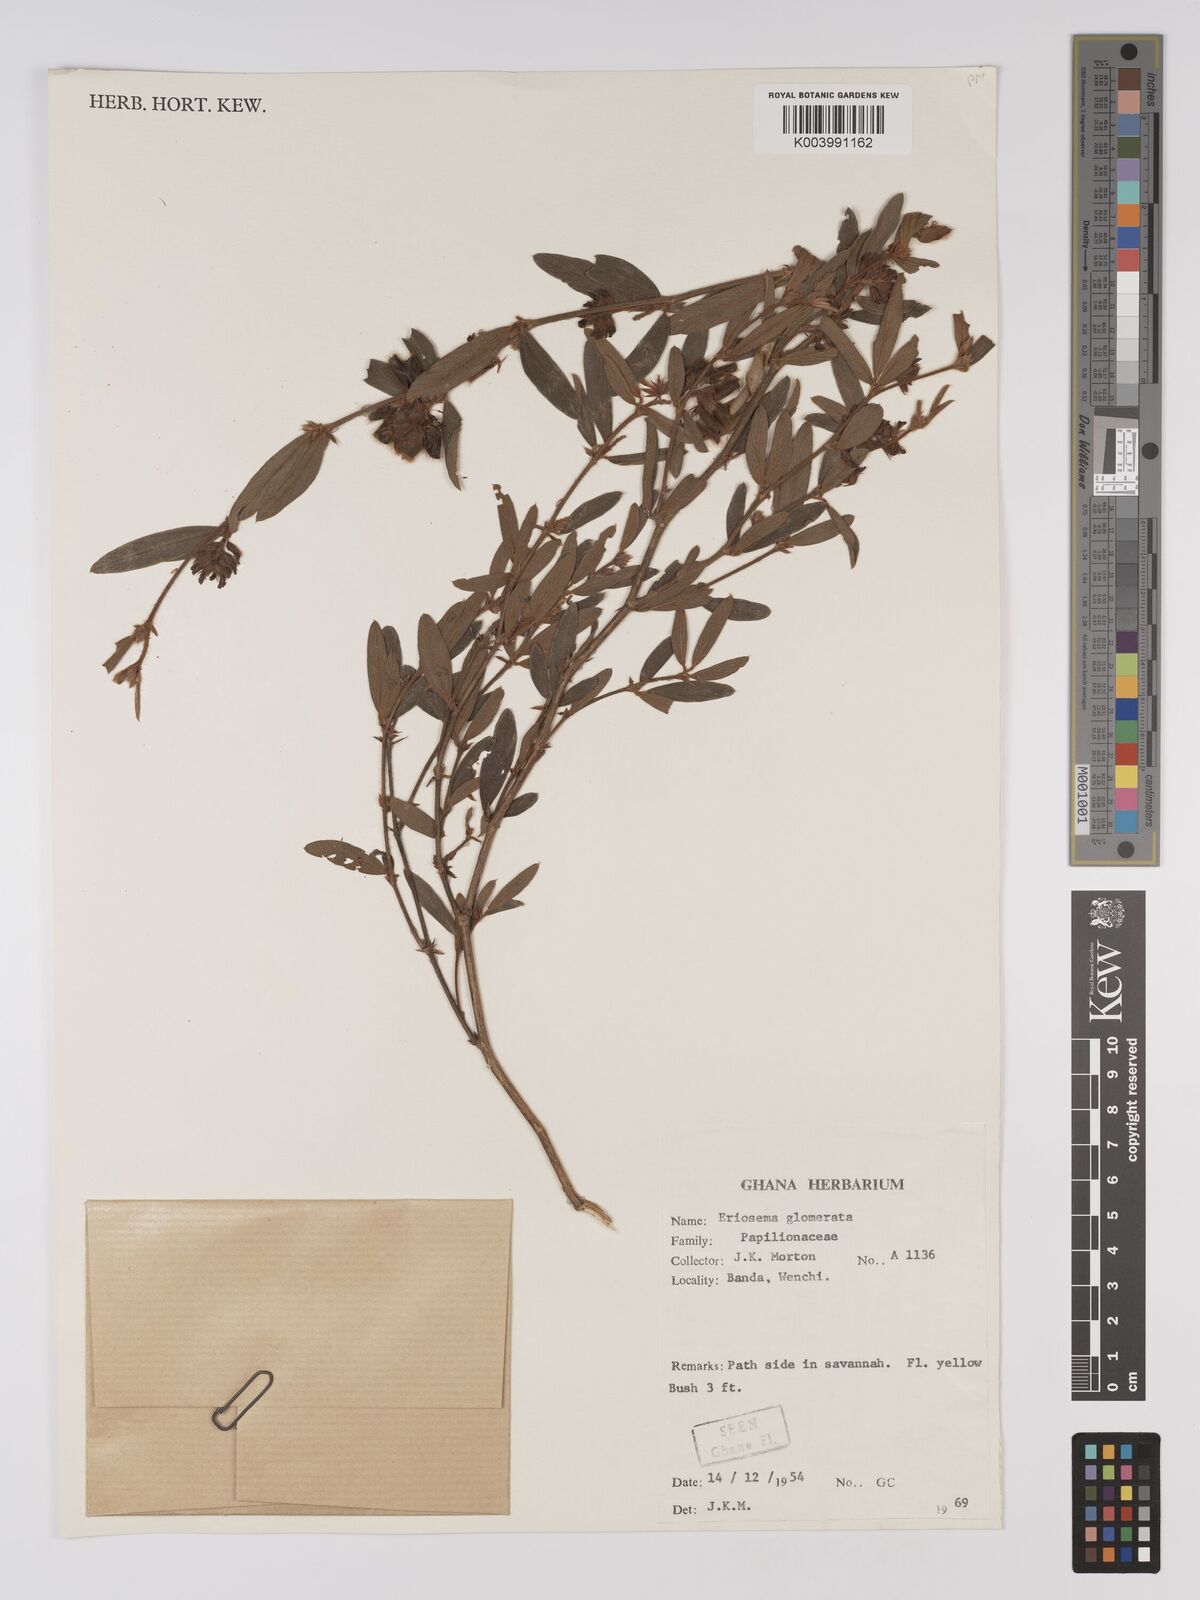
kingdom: Plantae
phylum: Tracheophyta
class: Magnoliopsida
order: Fabales
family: Fabaceae
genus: Eriosema
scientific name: Eriosema glomeratum
